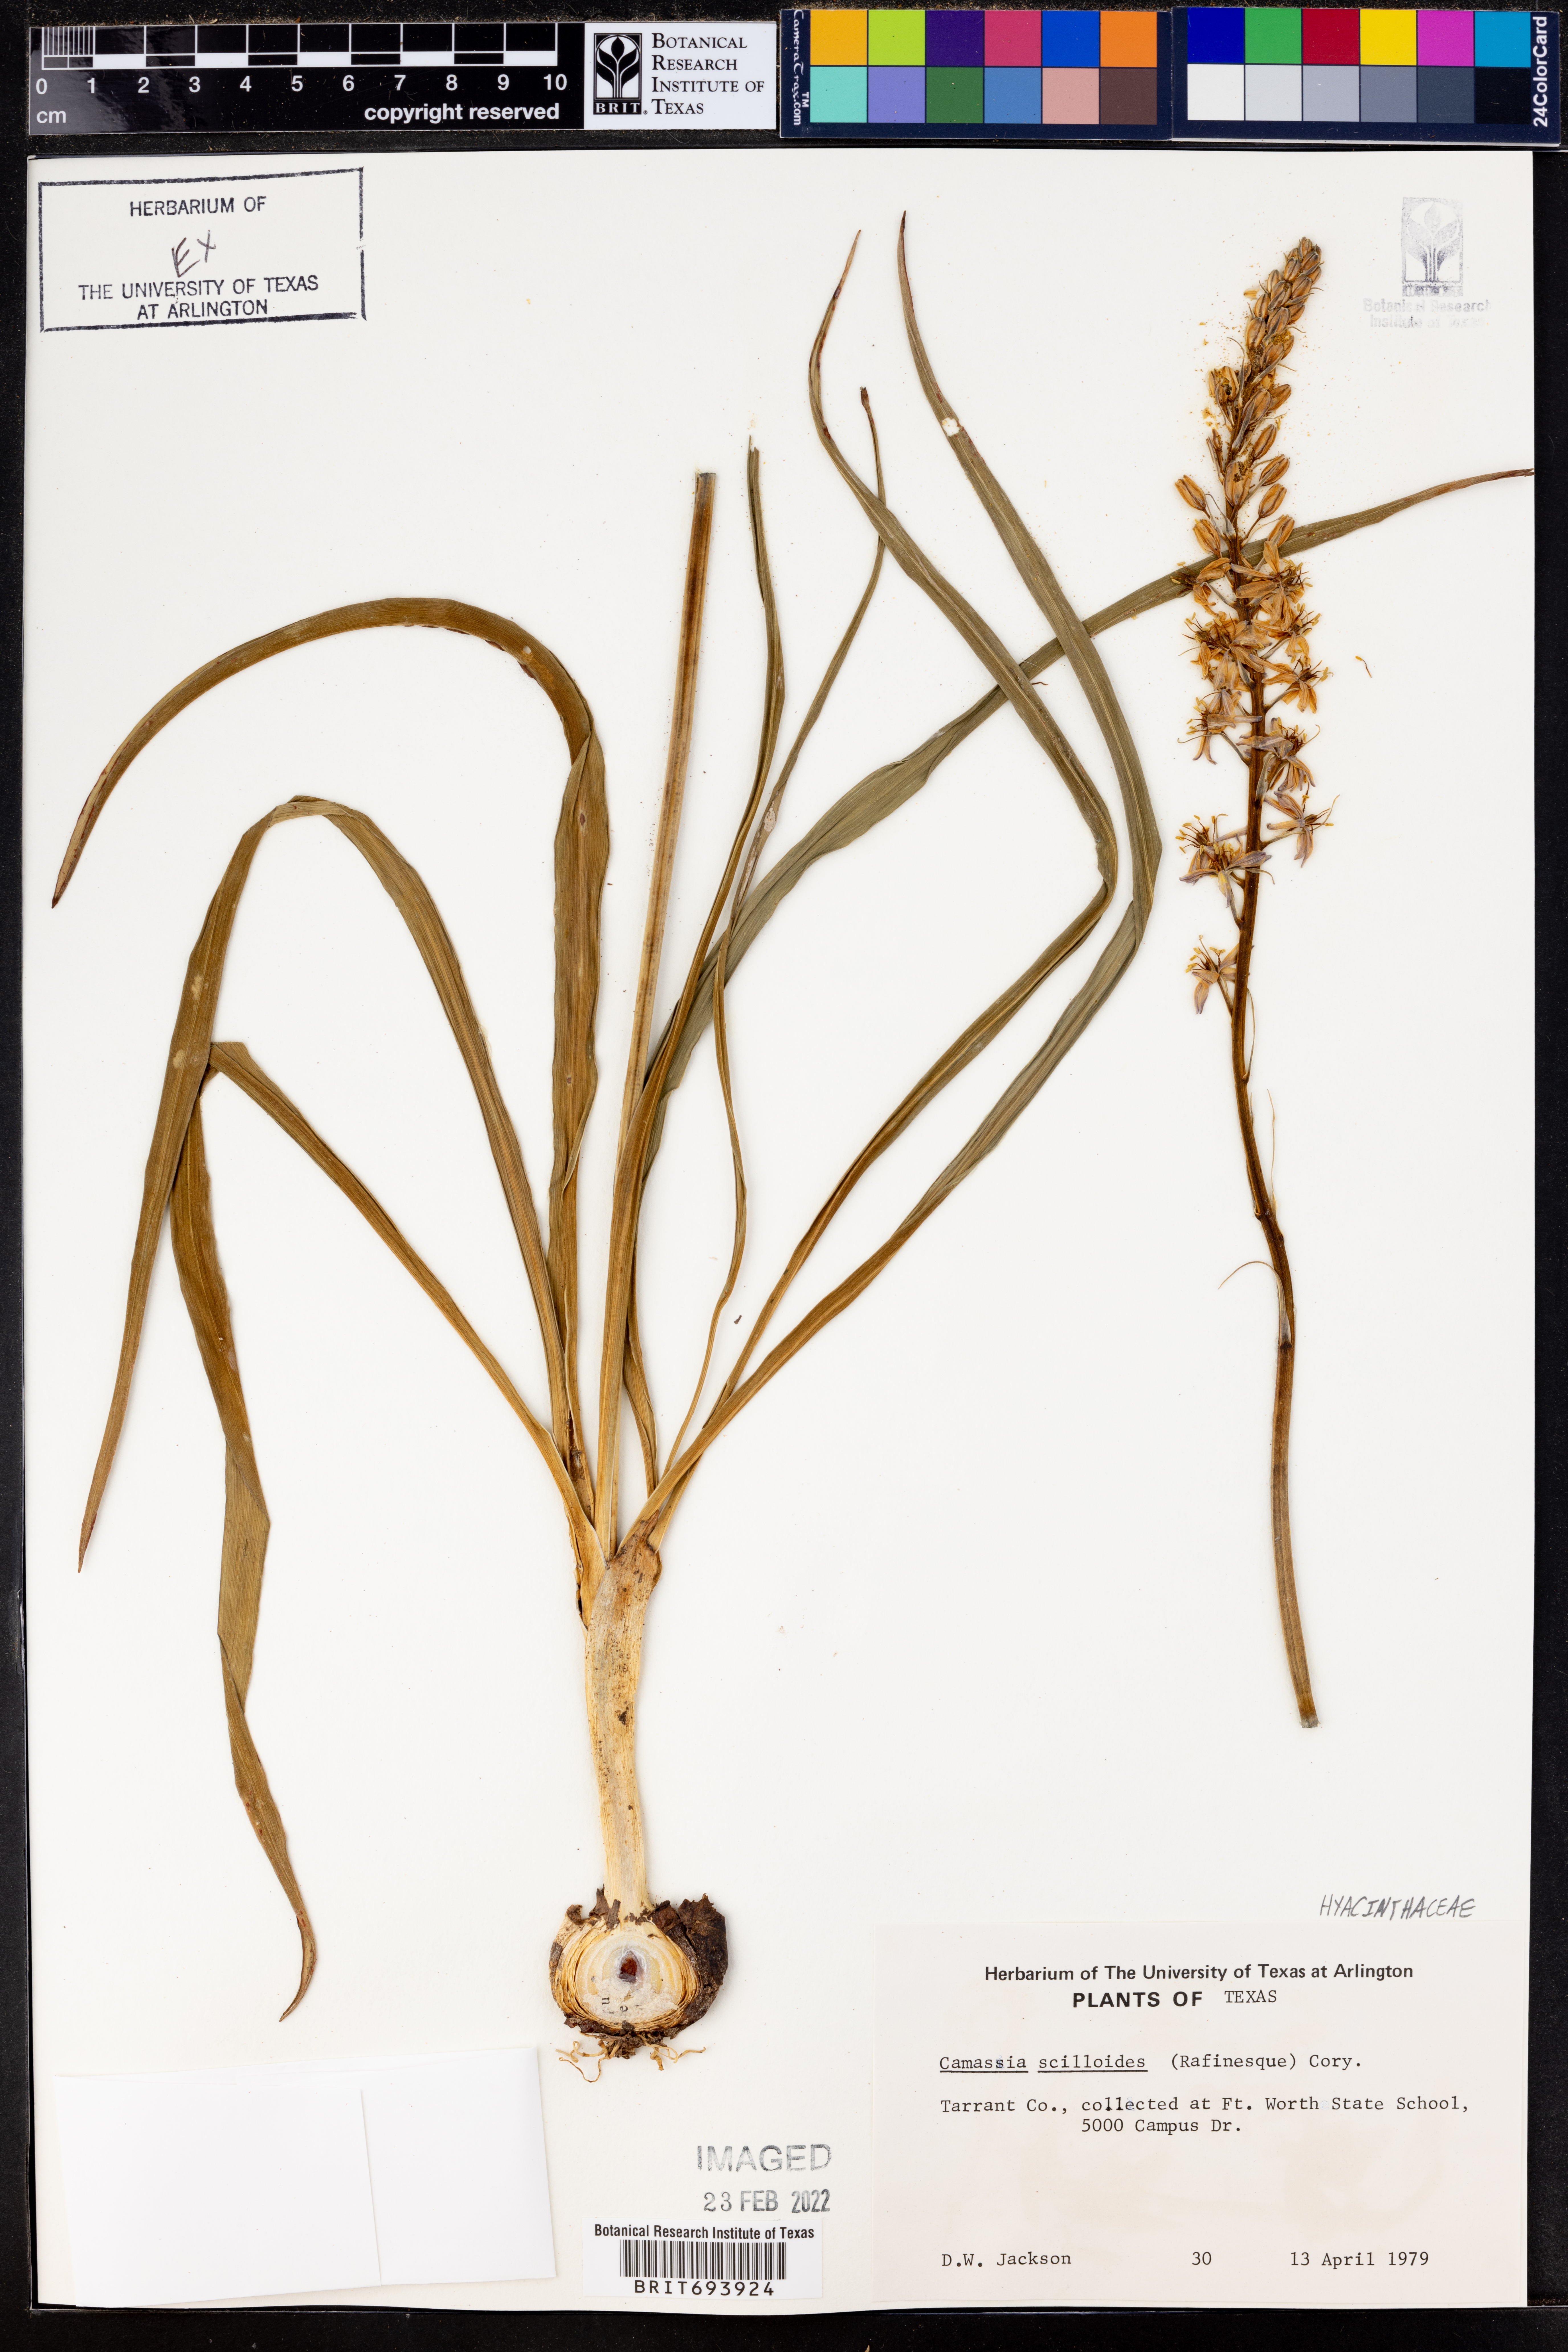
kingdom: Plantae
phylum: Tracheophyta
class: Liliopsida
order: Asparagales
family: Asparagaceae
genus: Camassia
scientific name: Camassia scilloides
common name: Wild hyacinth
